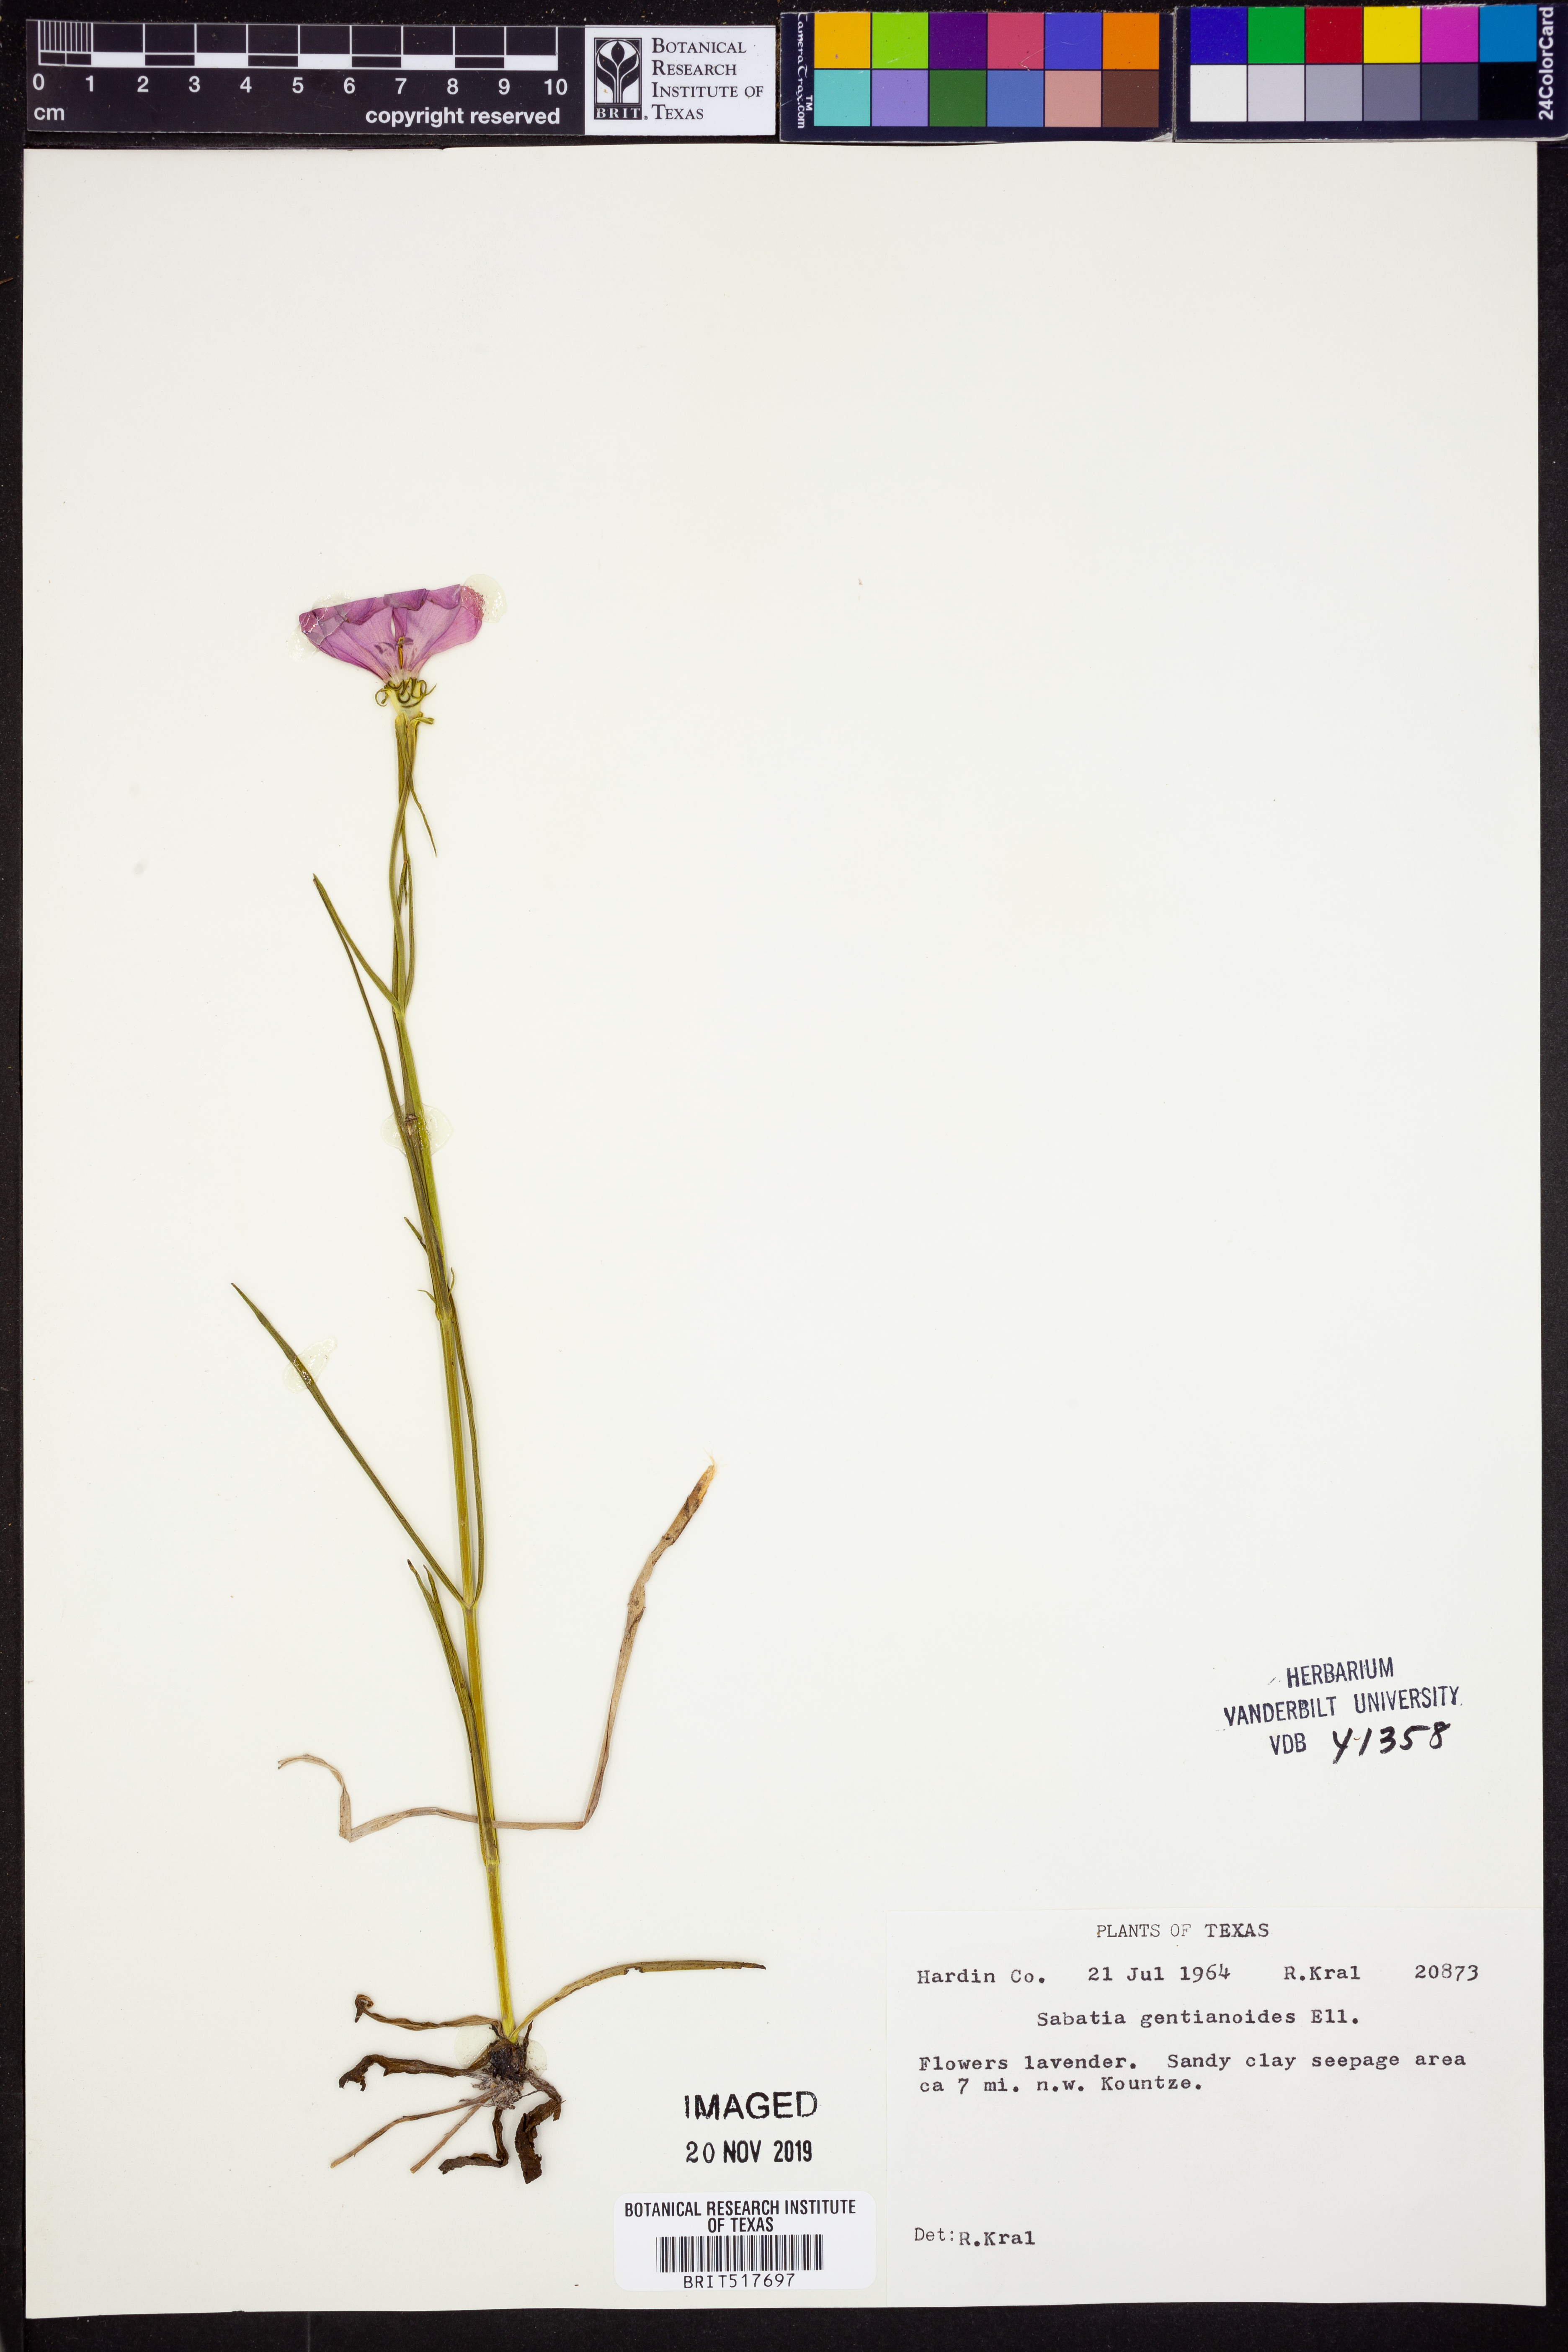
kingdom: Plantae
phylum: Tracheophyta
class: Magnoliopsida
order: Gentianales
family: Gentianaceae
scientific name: Gentianaceae
